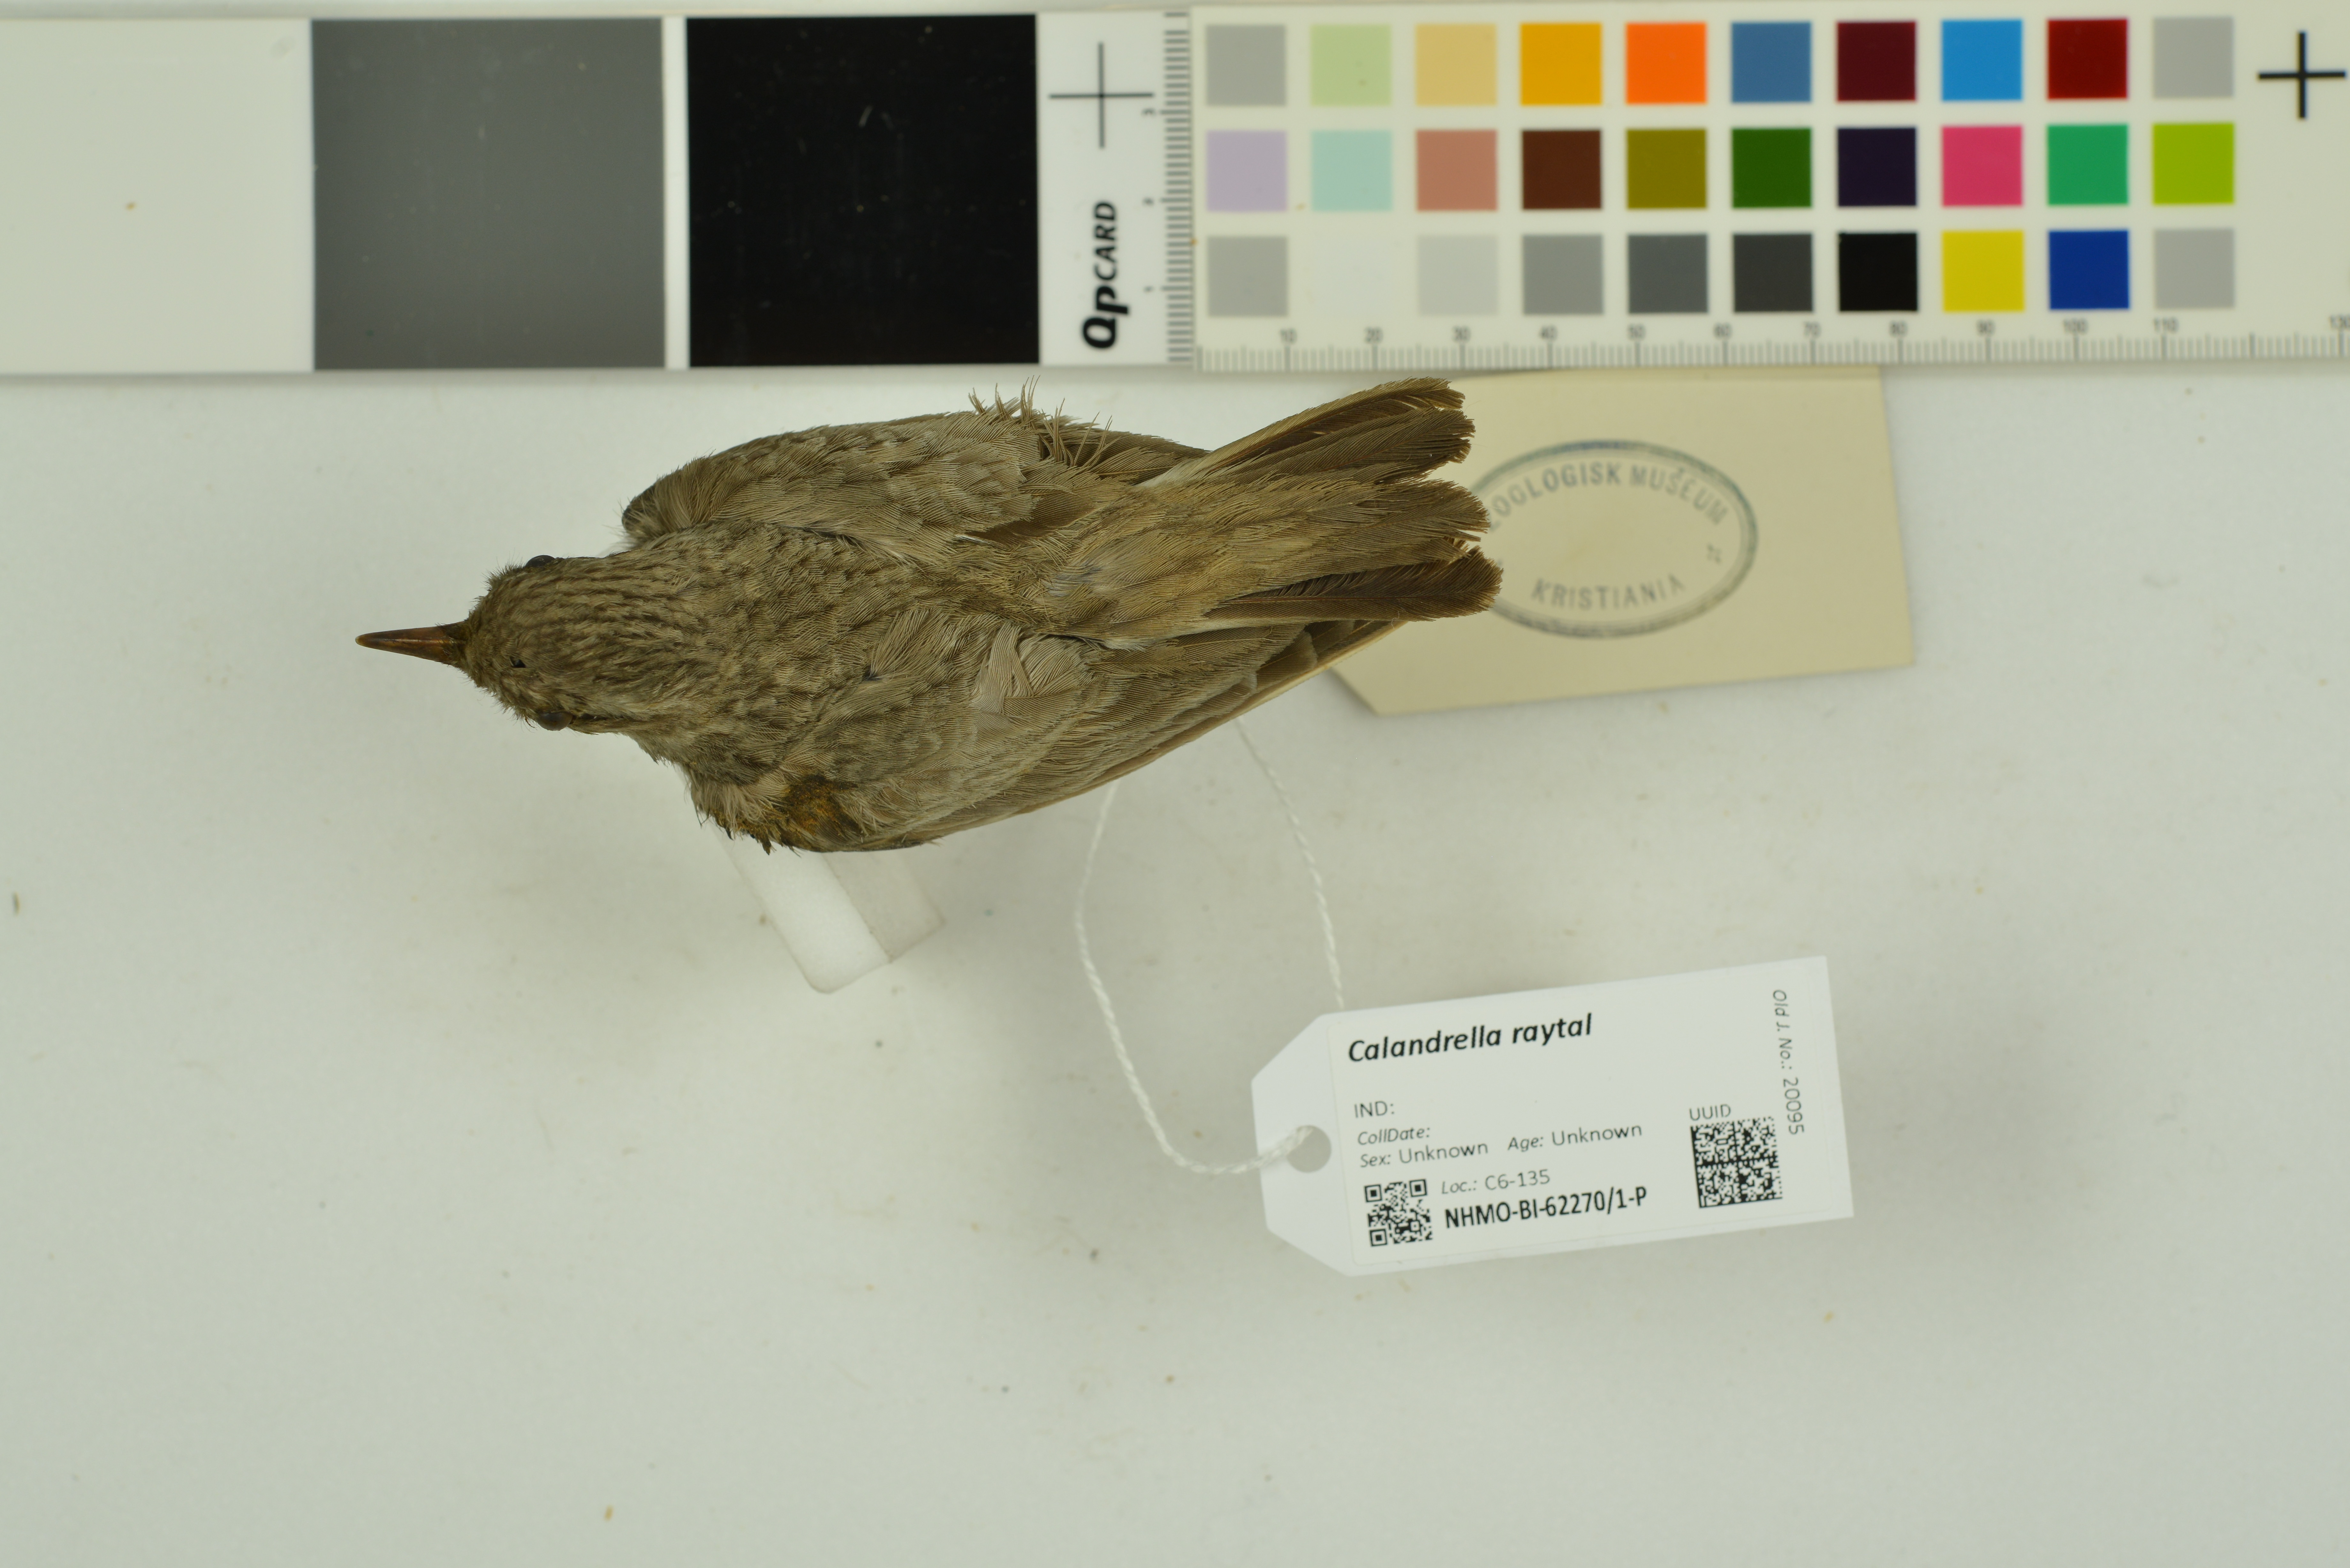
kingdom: Animalia
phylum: Chordata
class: Aves
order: Passeriformes
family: Alaudidae
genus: Calandrella
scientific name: Calandrella raytal
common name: Sand lark
